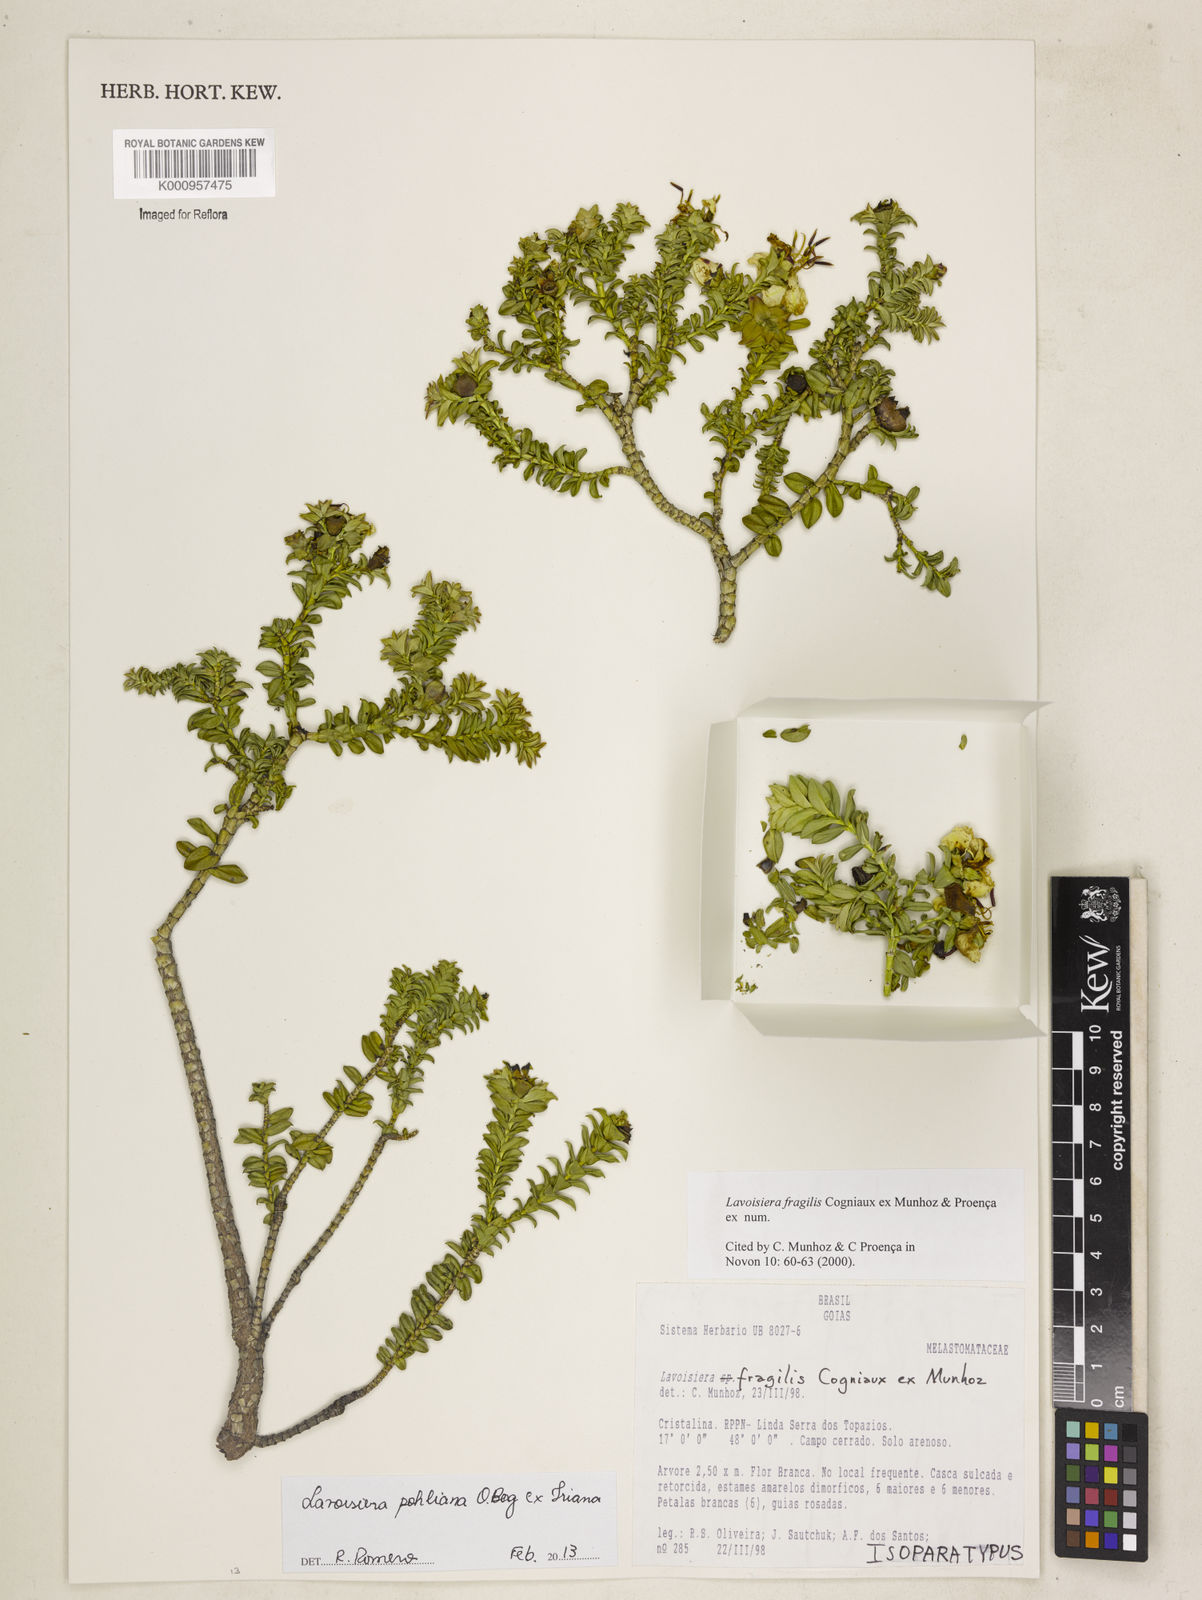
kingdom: Plantae
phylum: Tracheophyta
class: Magnoliopsida
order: Myrtales
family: Melastomataceae
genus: Microlicia
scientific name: Microlicia pohliana
